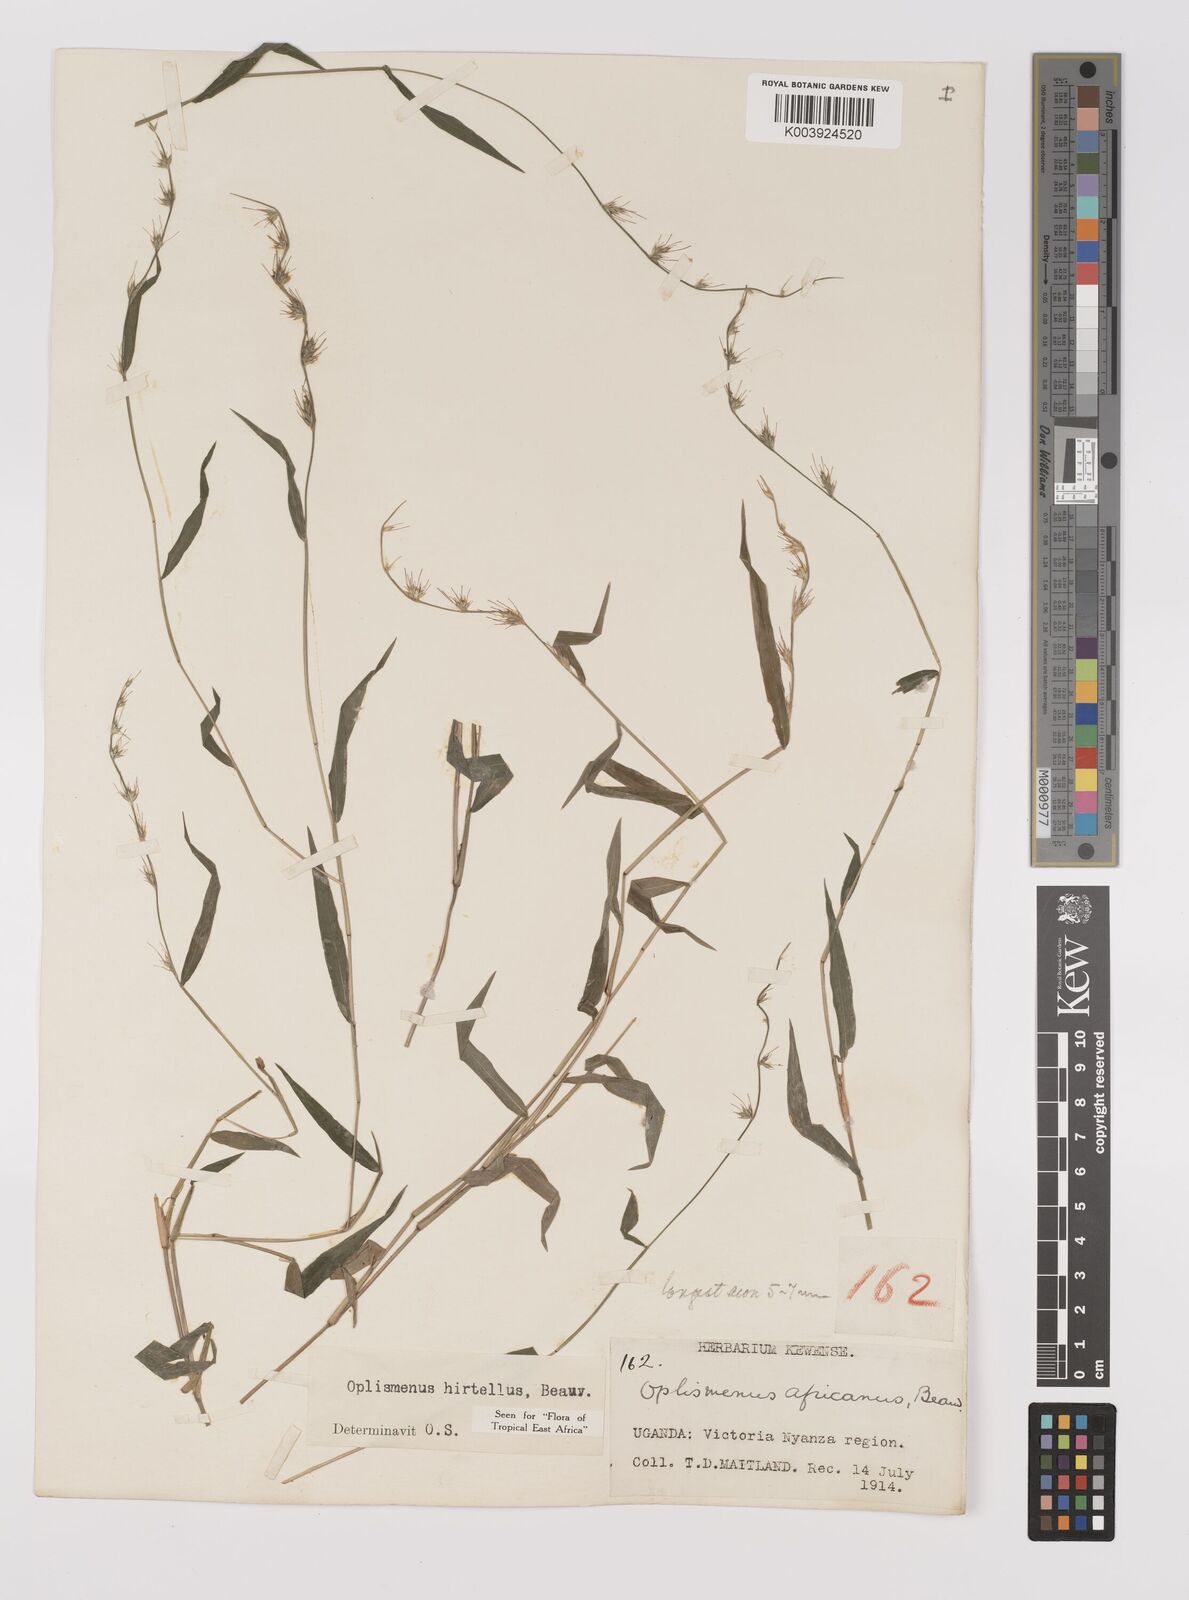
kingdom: Plantae
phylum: Tracheophyta
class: Liliopsida
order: Poales
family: Poaceae
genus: Oplismenus
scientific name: Oplismenus hirtellus
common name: Basketgrass
